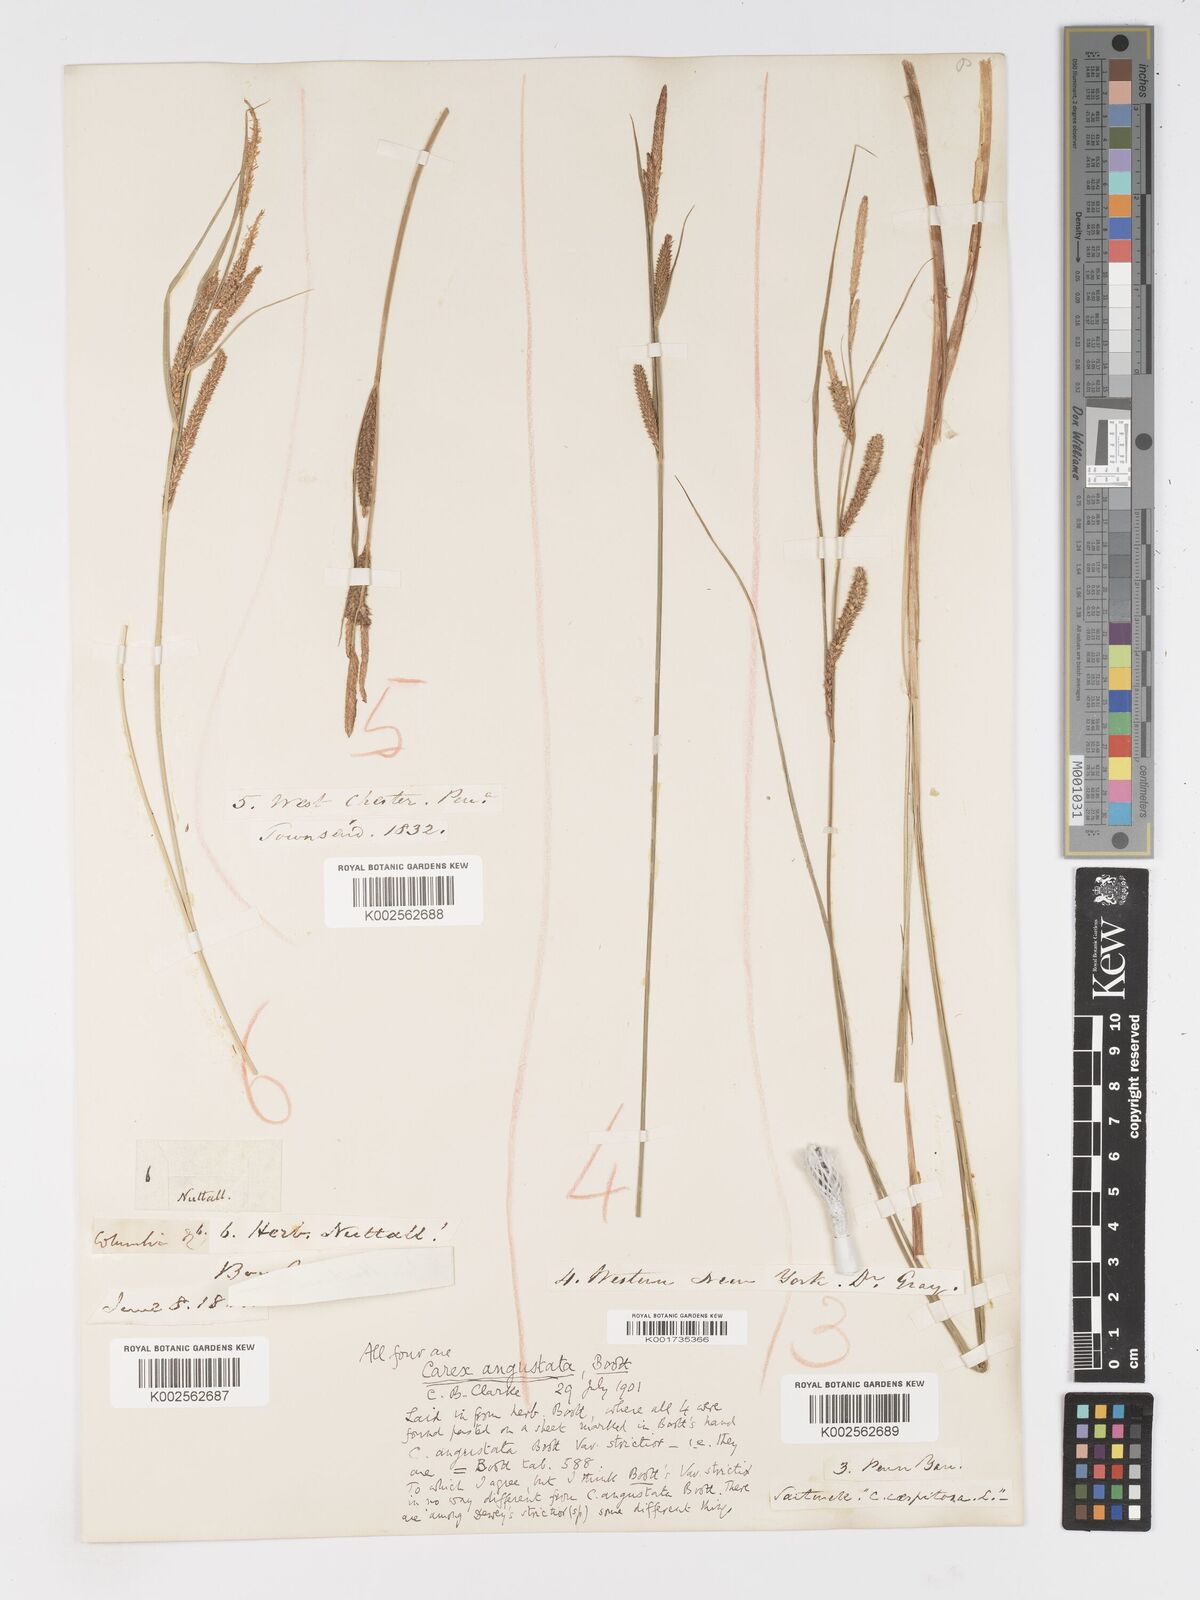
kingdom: Plantae
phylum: Tracheophyta
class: Liliopsida
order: Poales
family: Cyperaceae
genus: Carex
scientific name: Carex stricta
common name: Hummock sedge
